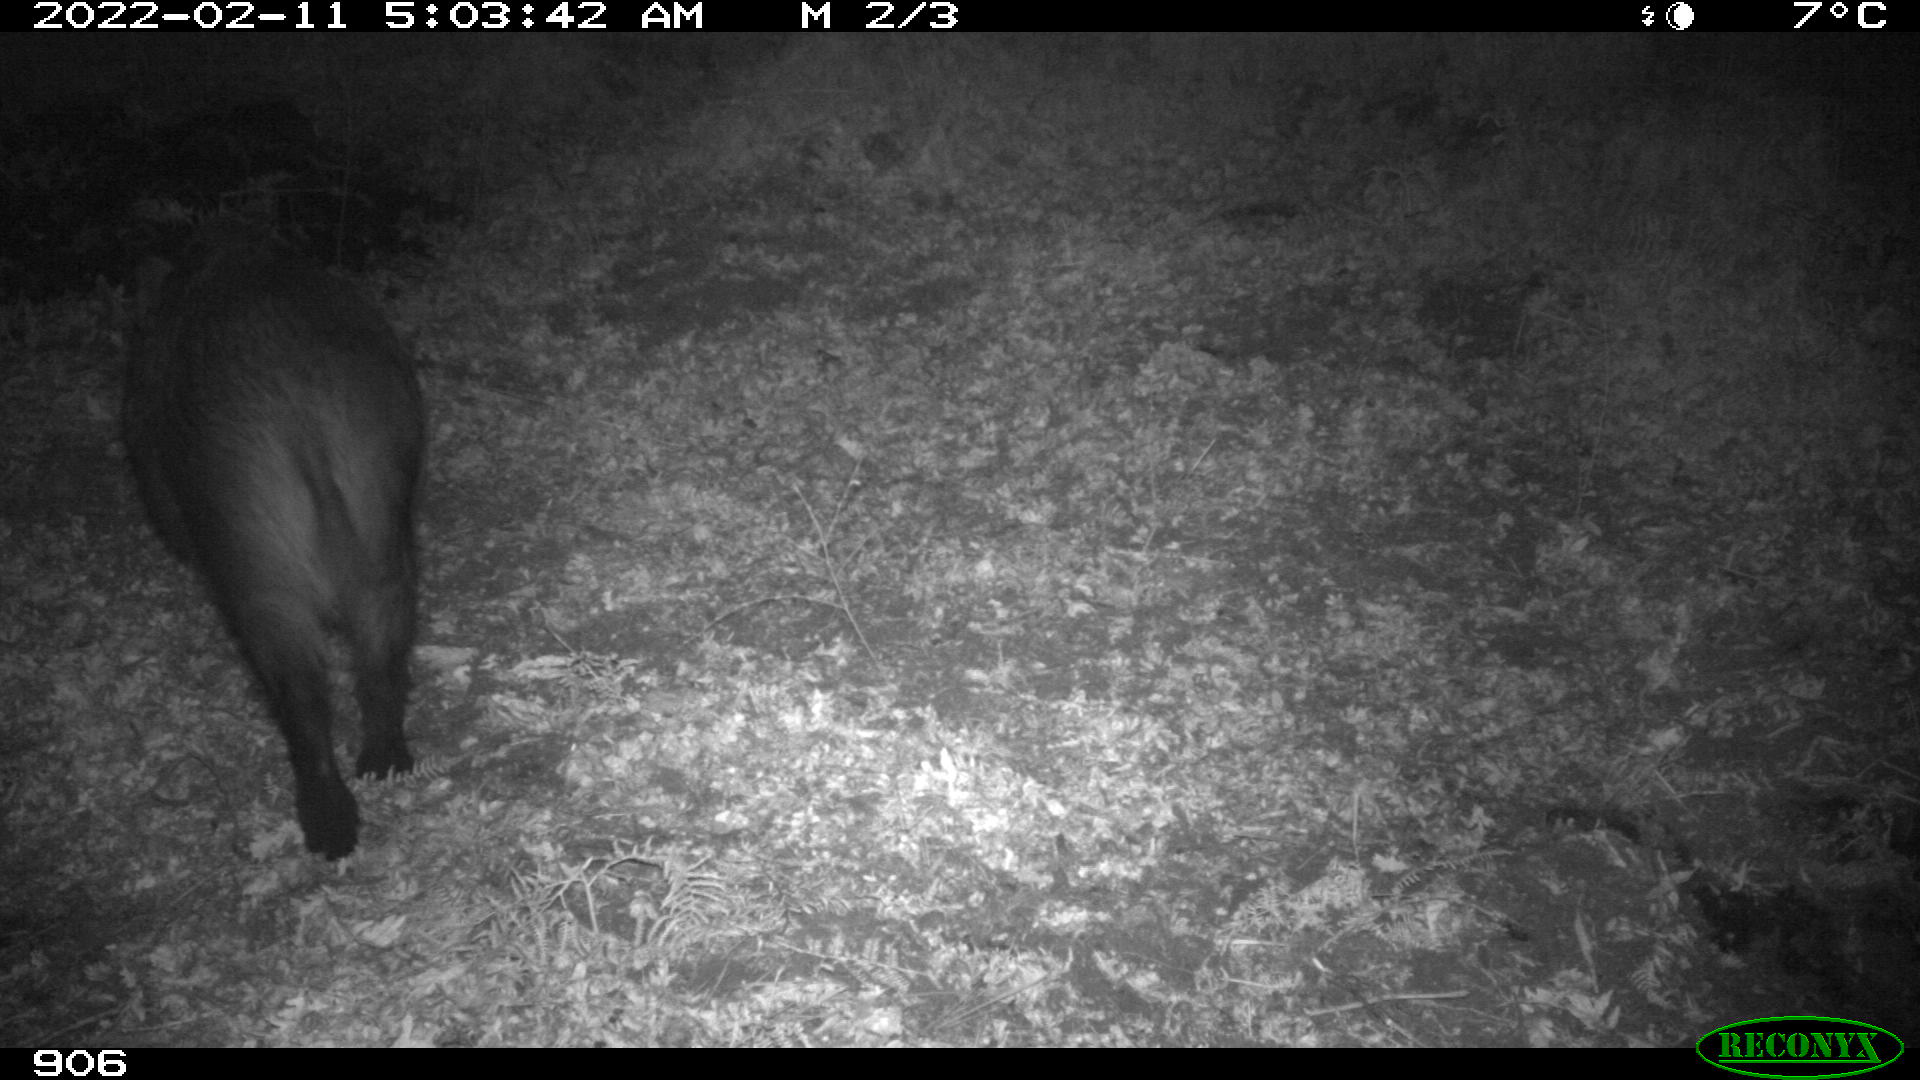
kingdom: Animalia
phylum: Chordata
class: Mammalia
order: Artiodactyla
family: Suidae
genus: Sus
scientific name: Sus scrofa
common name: Wild boar
